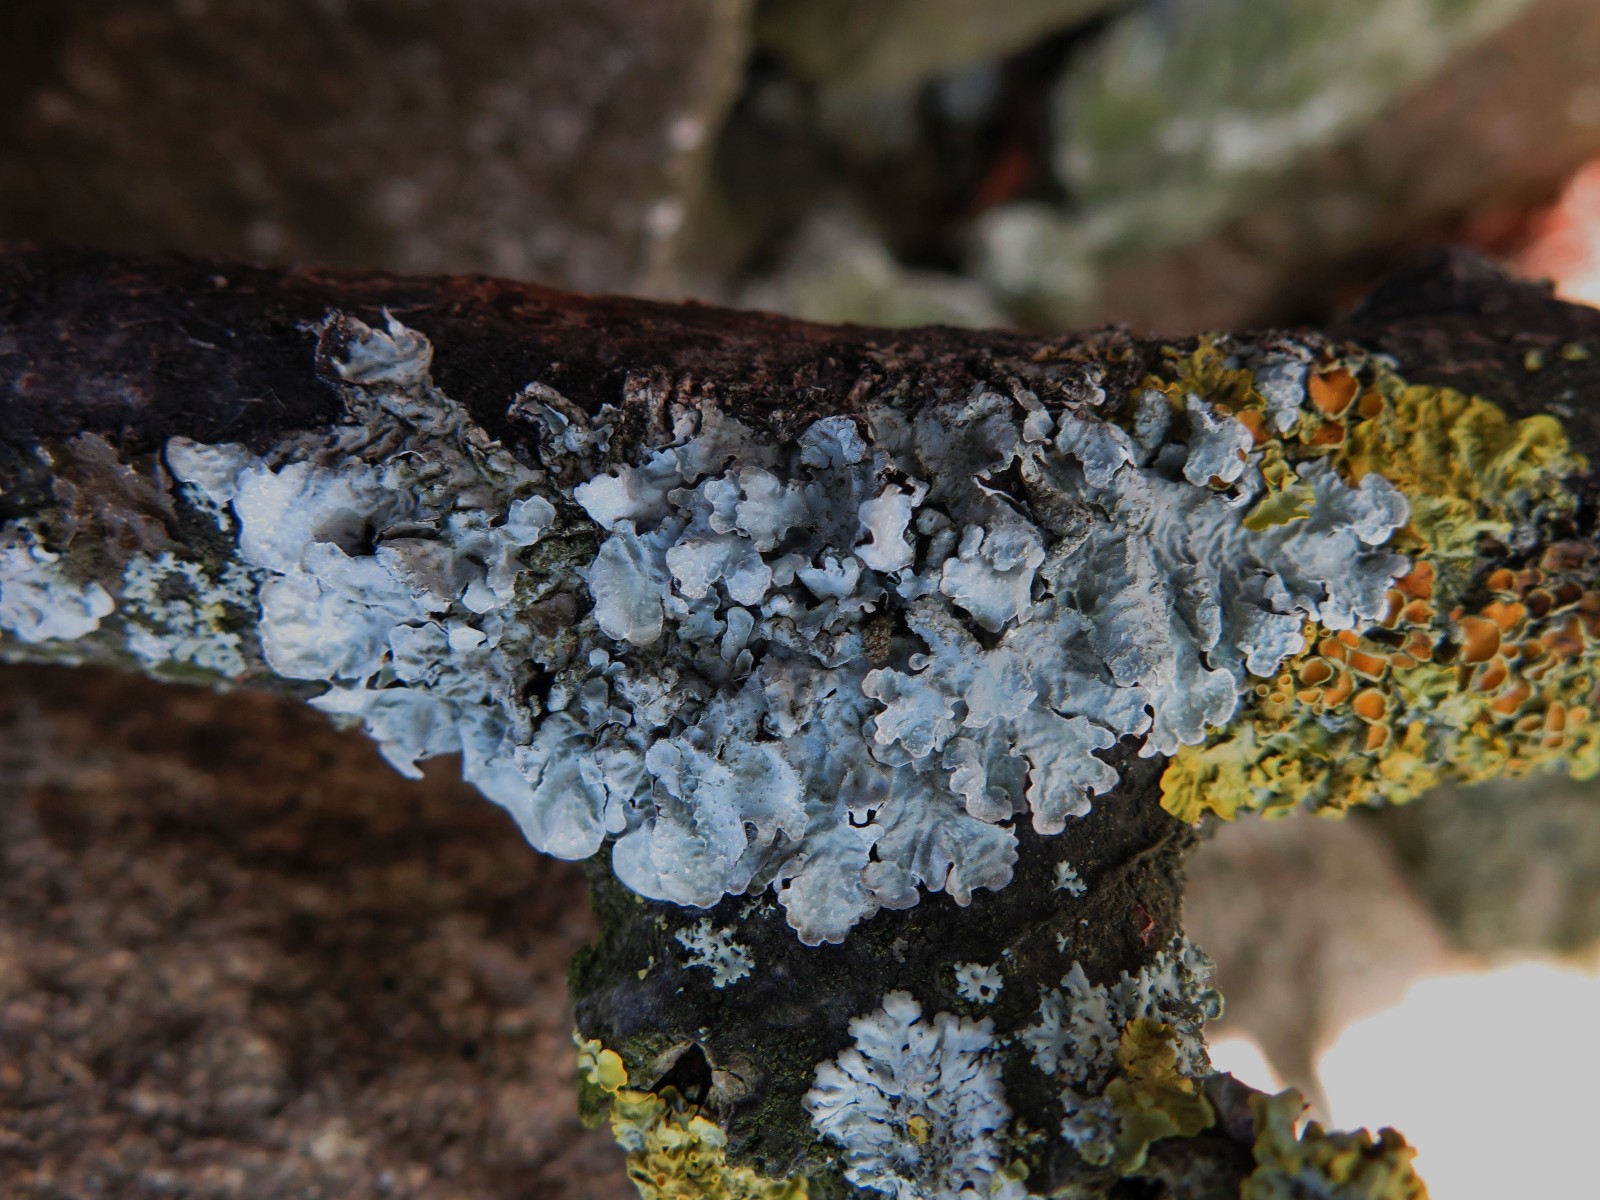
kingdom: Fungi
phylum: Ascomycota
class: Lecanoromycetes
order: Lecanorales
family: Parmeliaceae
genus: Parmelia
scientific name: Parmelia sulcata
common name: rynket skållav
